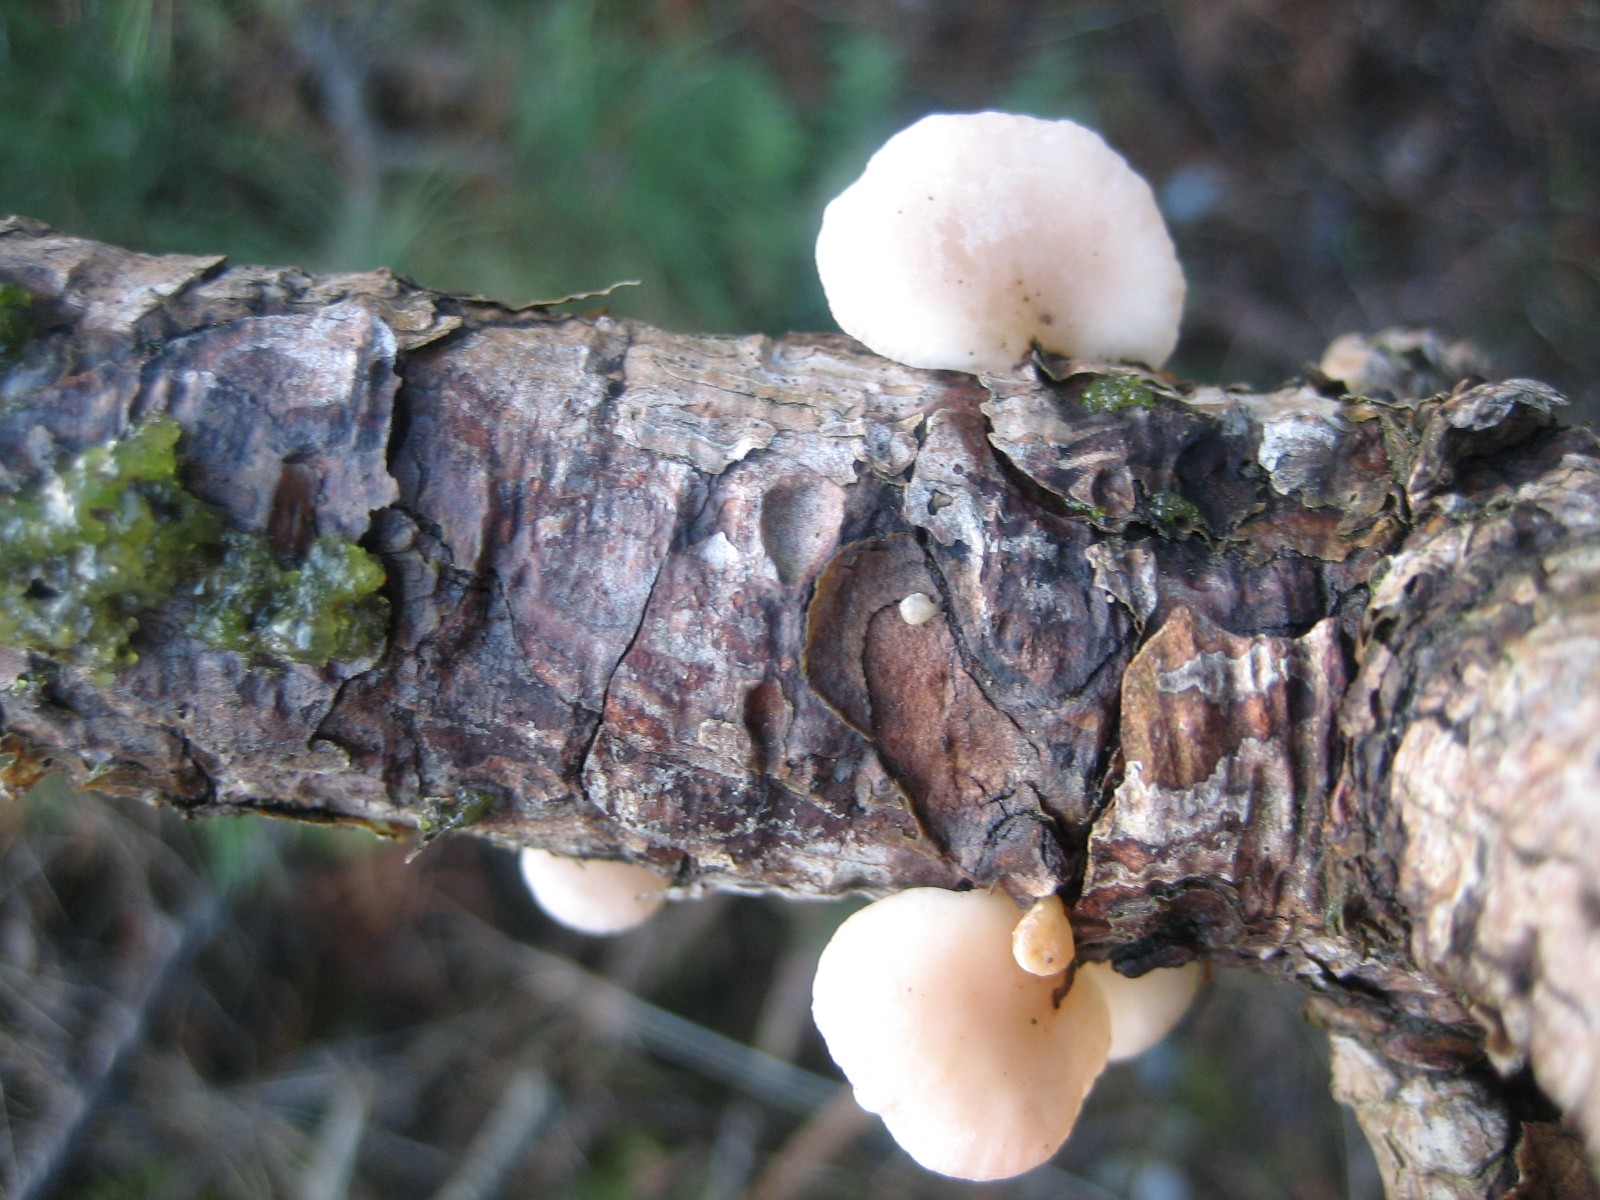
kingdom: Fungi
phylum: Basidiomycota
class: Agaricomycetes
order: Agaricales
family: Mycenaceae
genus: Panellus
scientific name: Panellus mitis
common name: mild epaulethat
